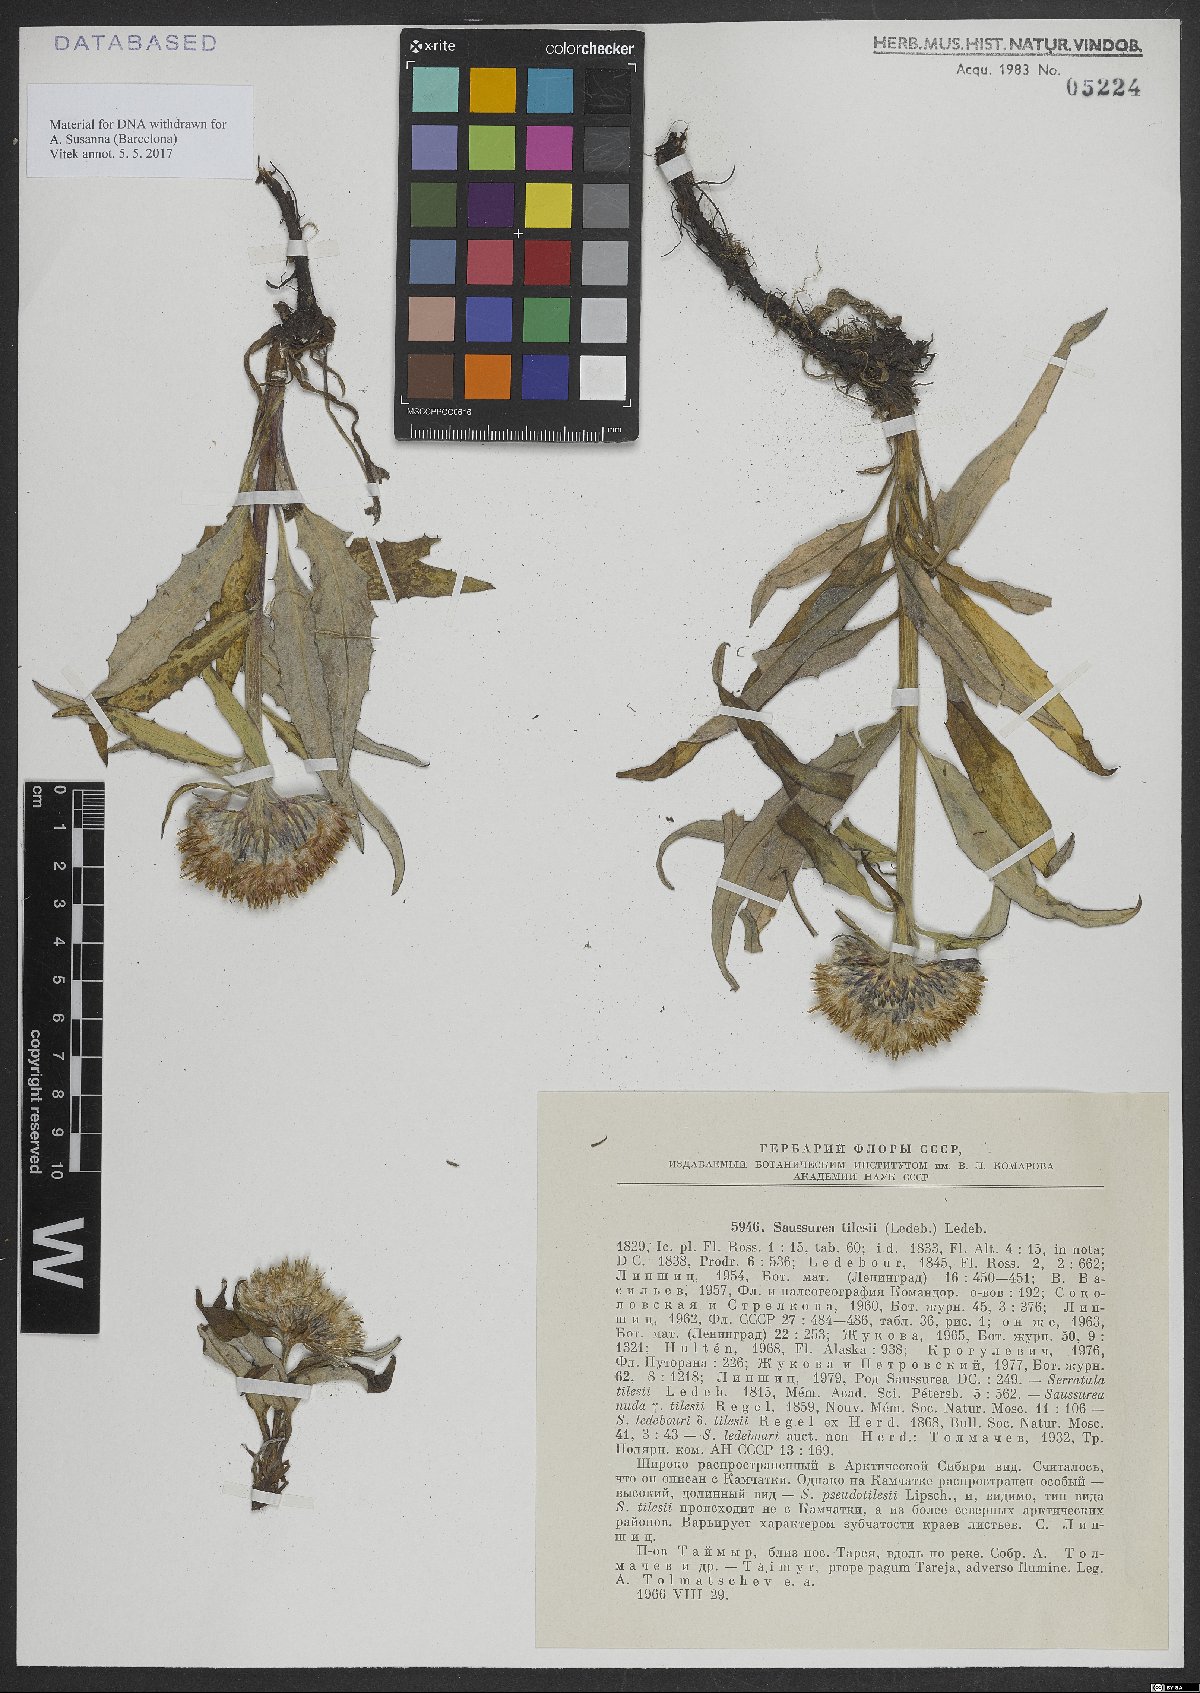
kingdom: Plantae
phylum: Tracheophyta
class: Magnoliopsida
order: Asterales
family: Asteraceae
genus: Saussurea
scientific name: Saussurea tilesii
